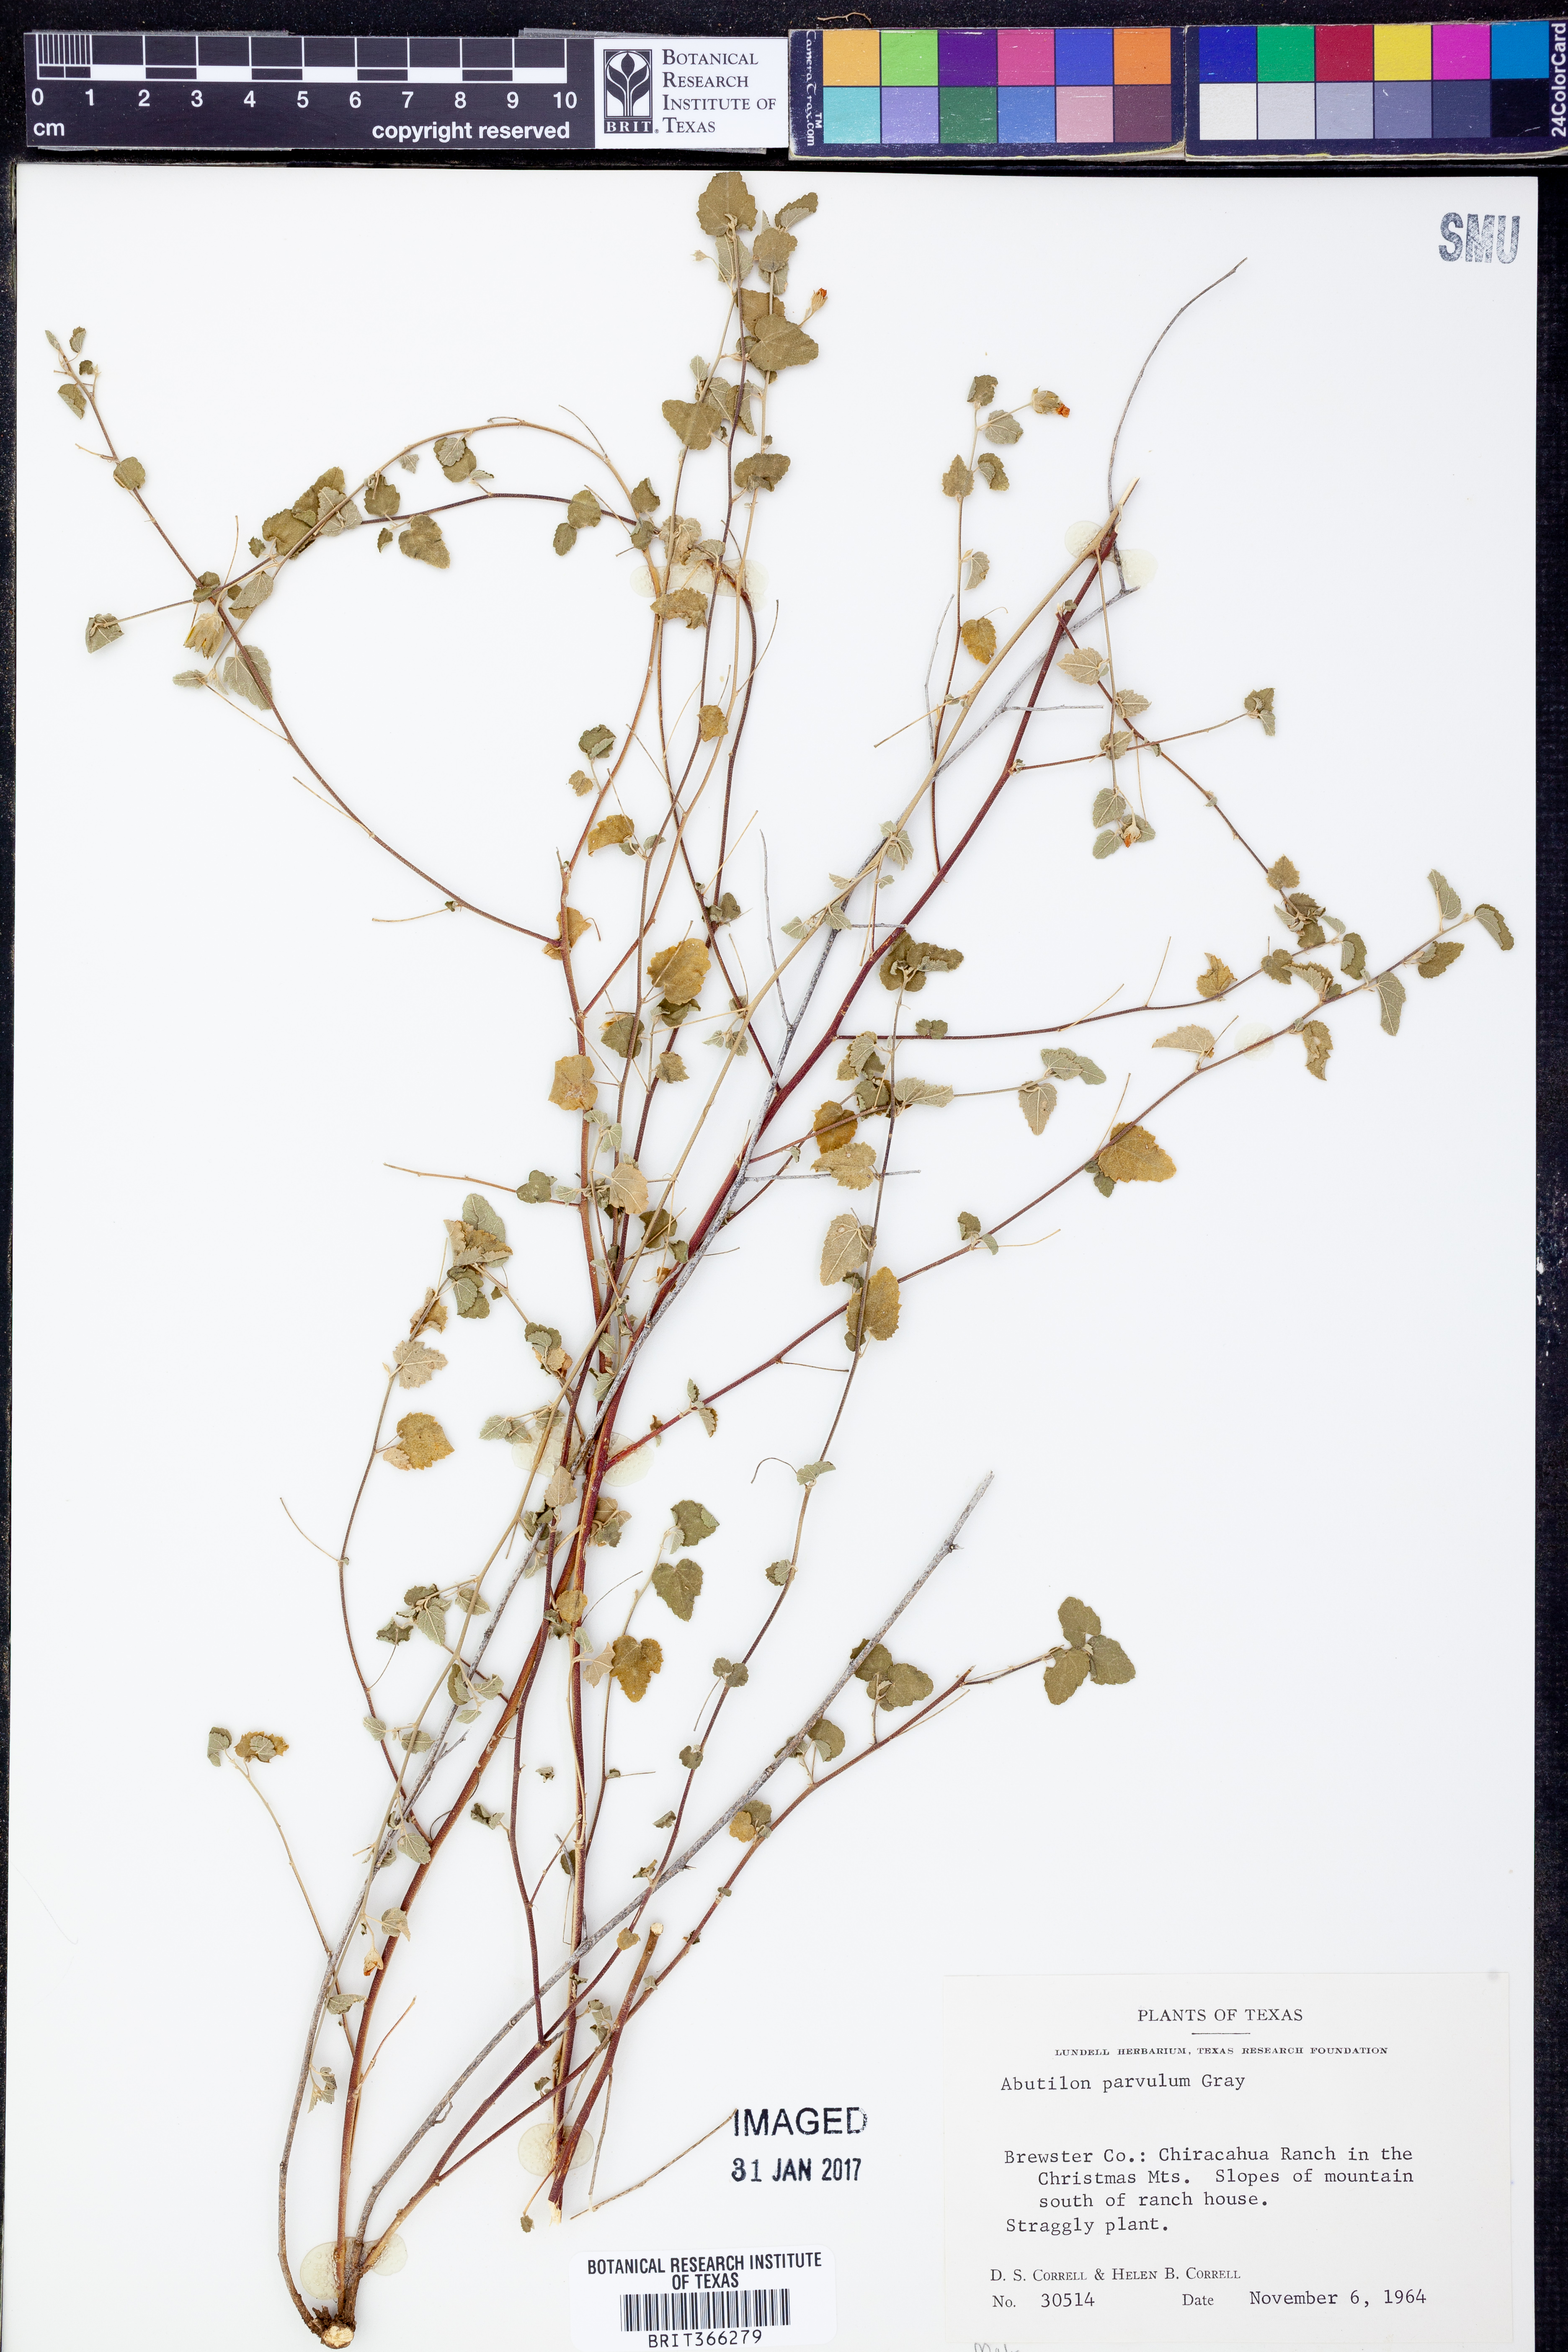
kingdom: Plantae
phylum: Tracheophyta
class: Magnoliopsida
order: Malvales
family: Malvaceae
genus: Abutilon
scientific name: Abutilon parvulum
